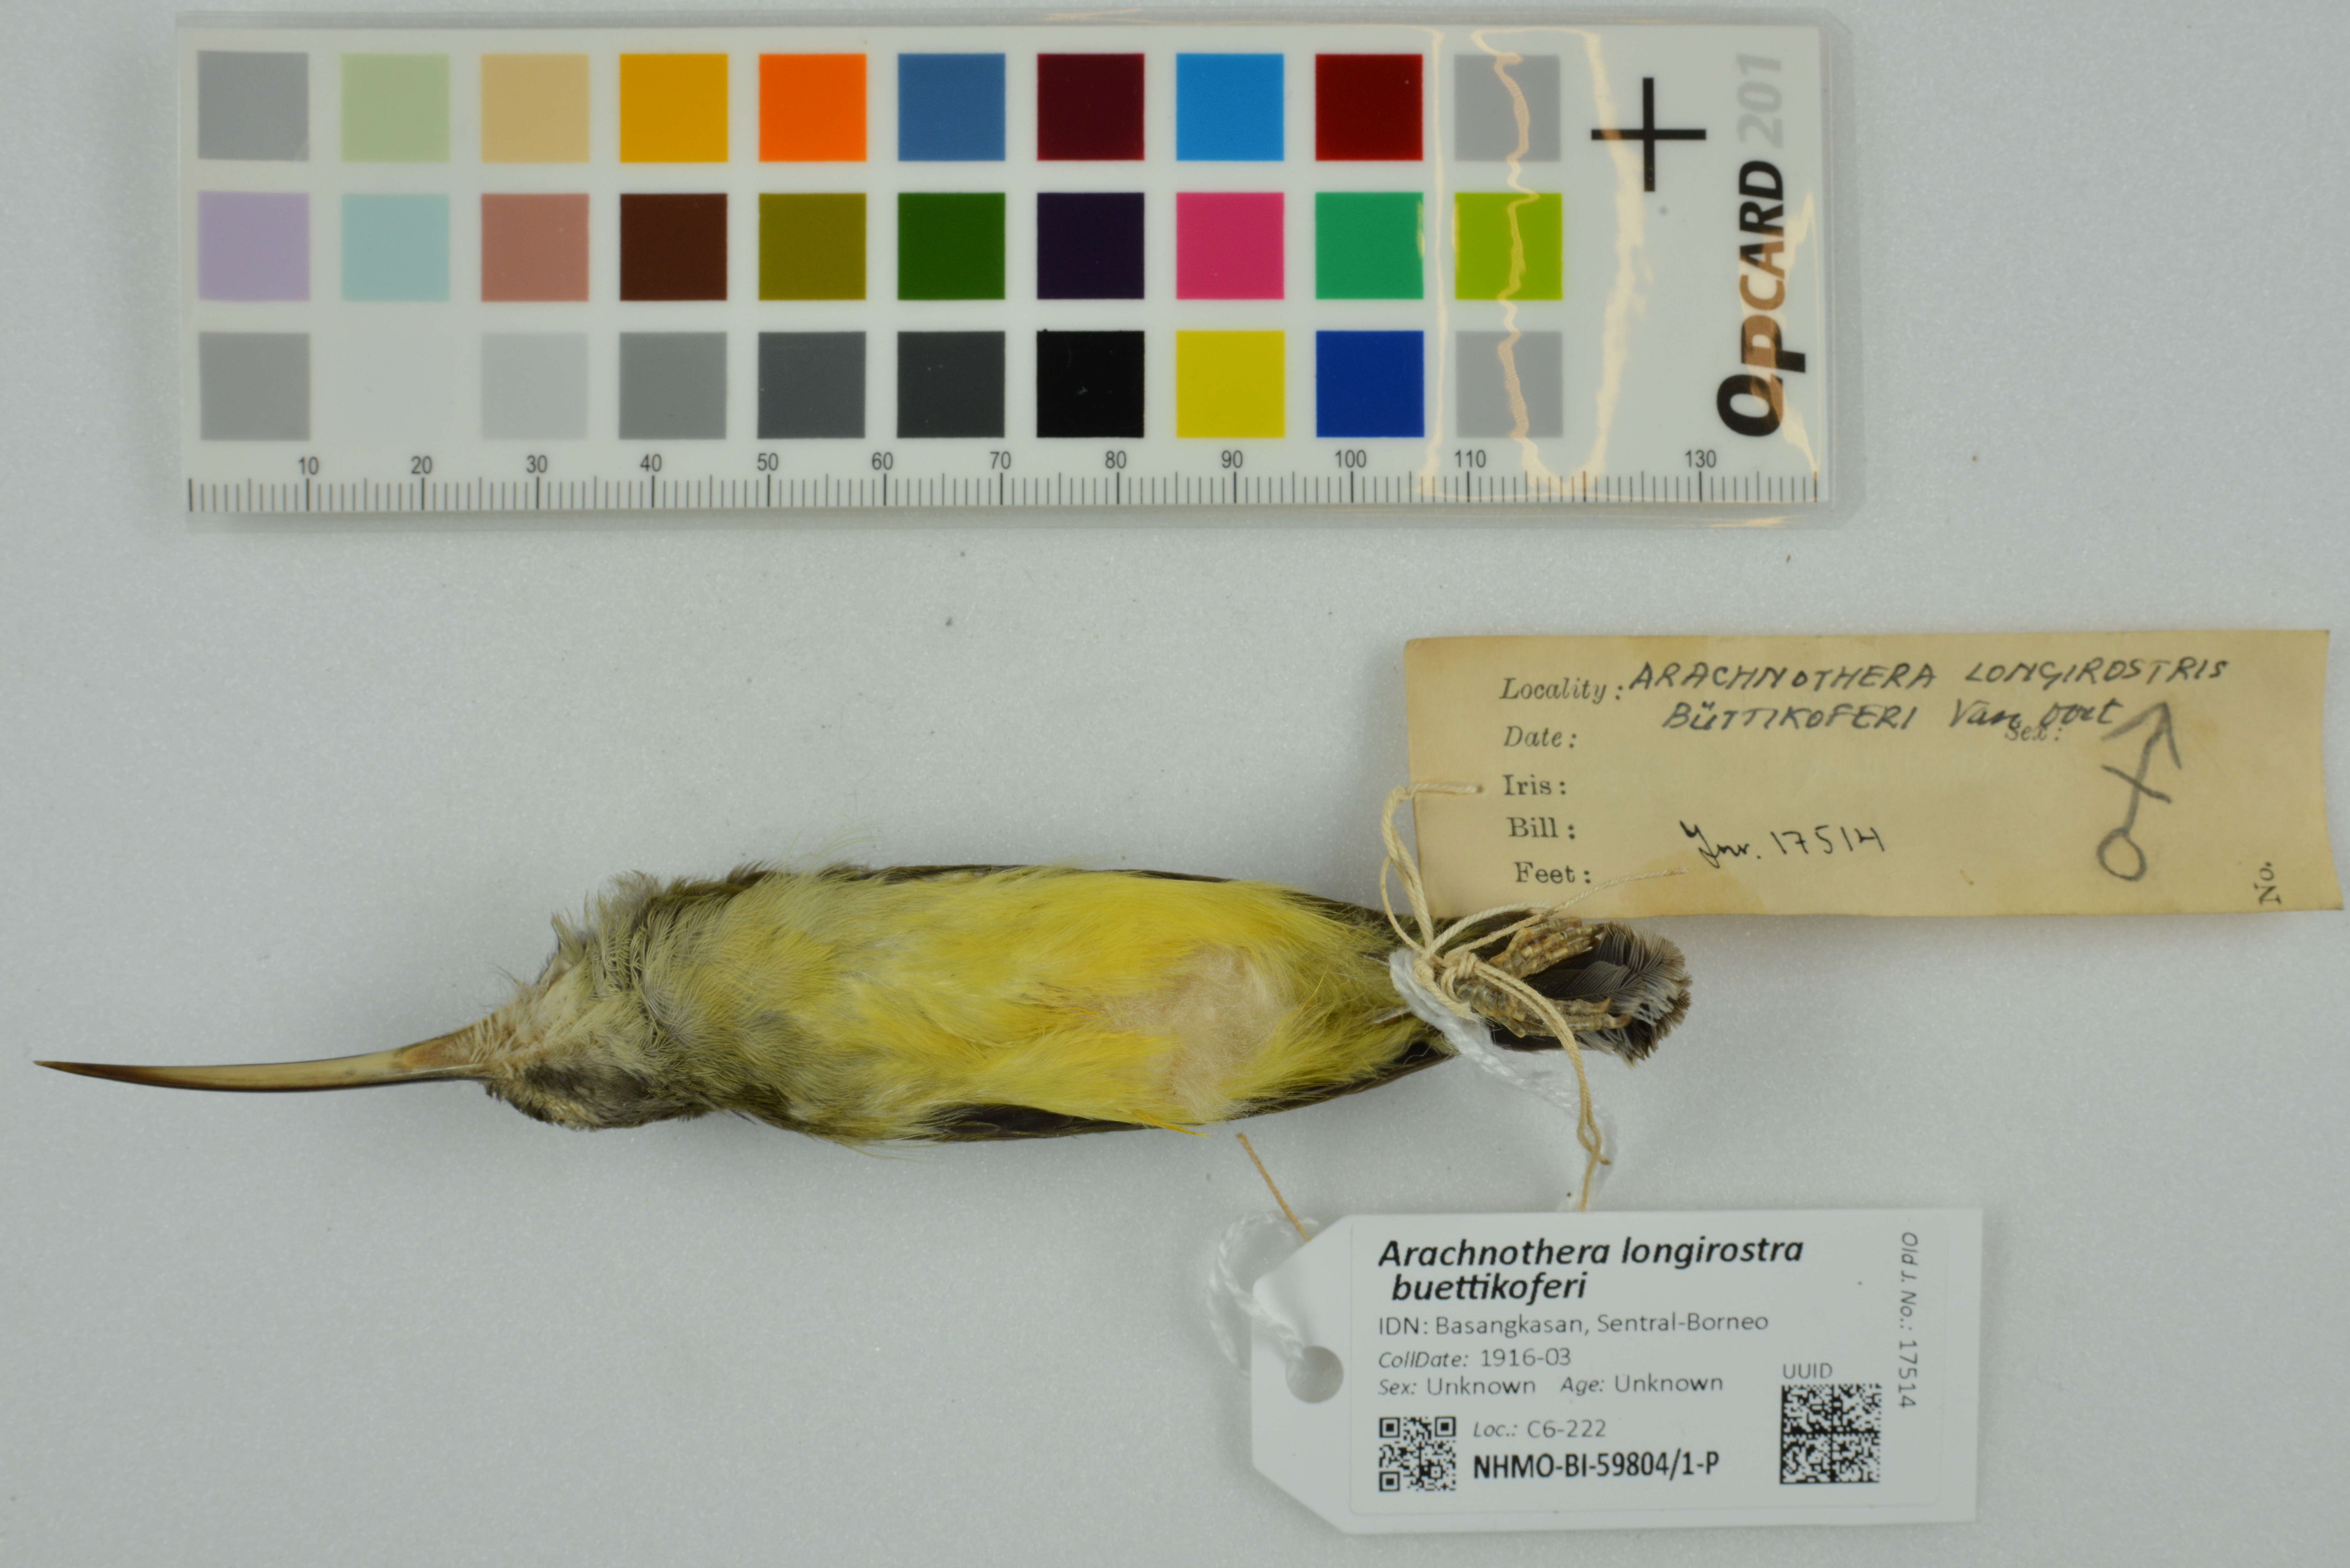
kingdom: Animalia
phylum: Chordata
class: Aves
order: Passeriformes
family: Nectariniidae
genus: Arachnothera
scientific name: Arachnothera longirostra
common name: Little spiderhunter
